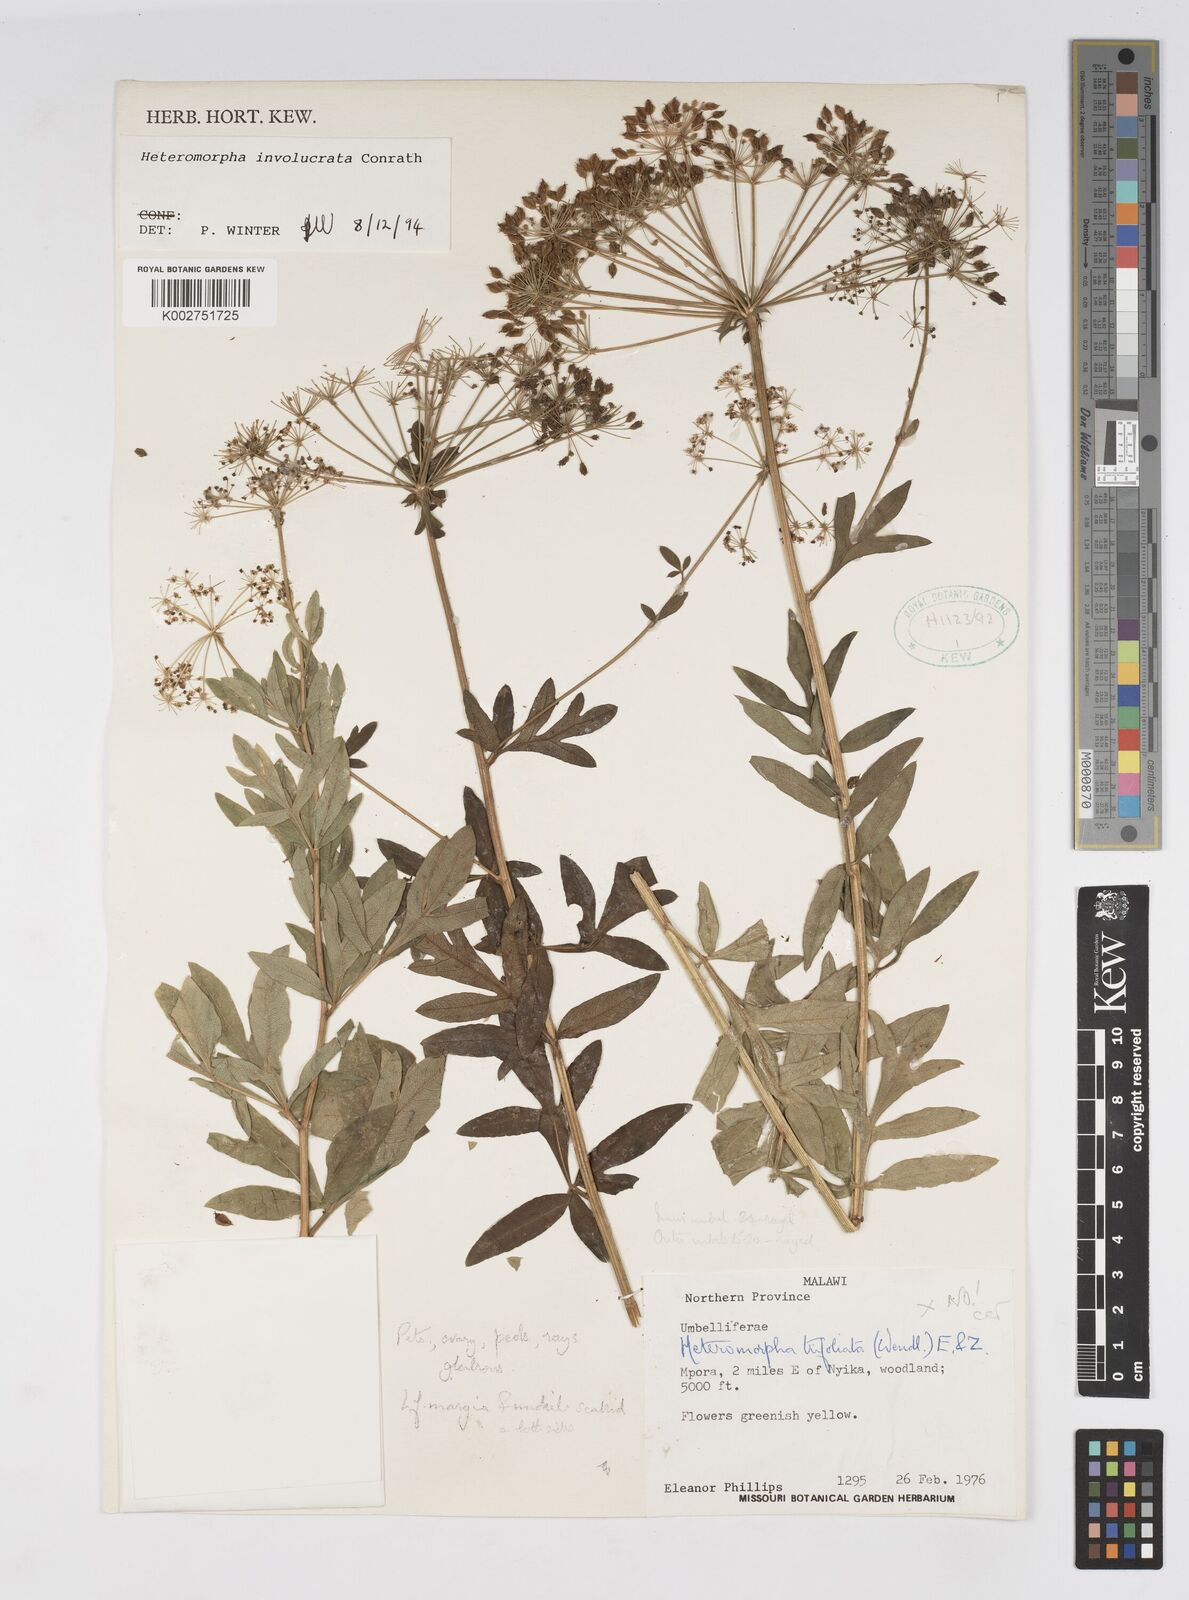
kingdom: Plantae
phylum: Tracheophyta
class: Magnoliopsida
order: Apiales
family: Apiaceae
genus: Heteromorpha
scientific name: Heteromorpha involucrata
